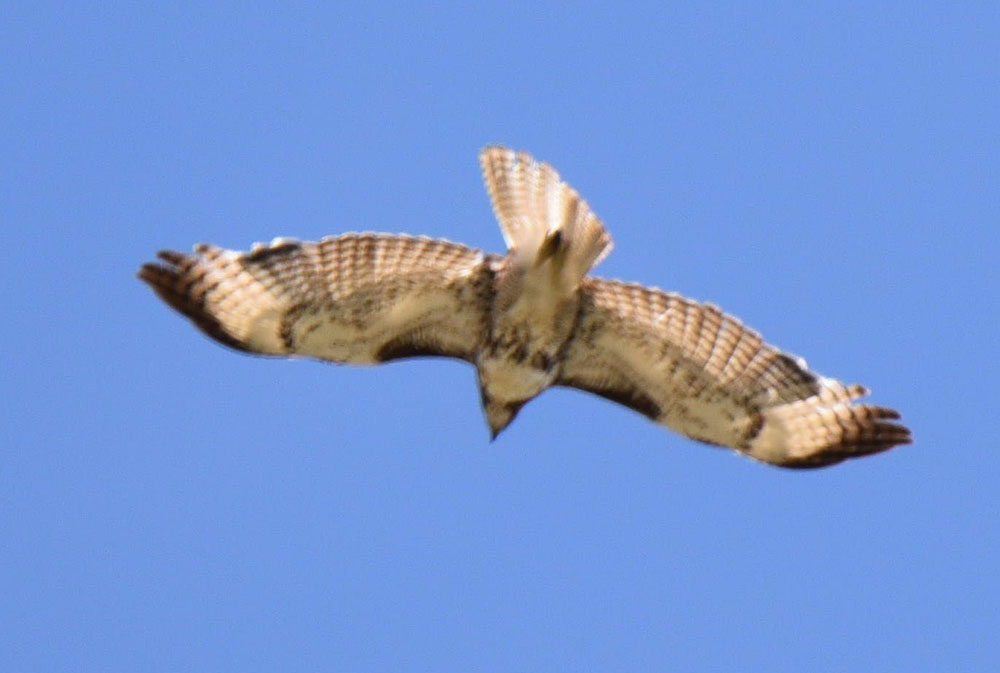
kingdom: Animalia
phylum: Chordata
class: Aves
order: Accipitriformes
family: Accipitridae
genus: Buteo
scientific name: Buteo jamaicensis
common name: Red-tailed hawk
